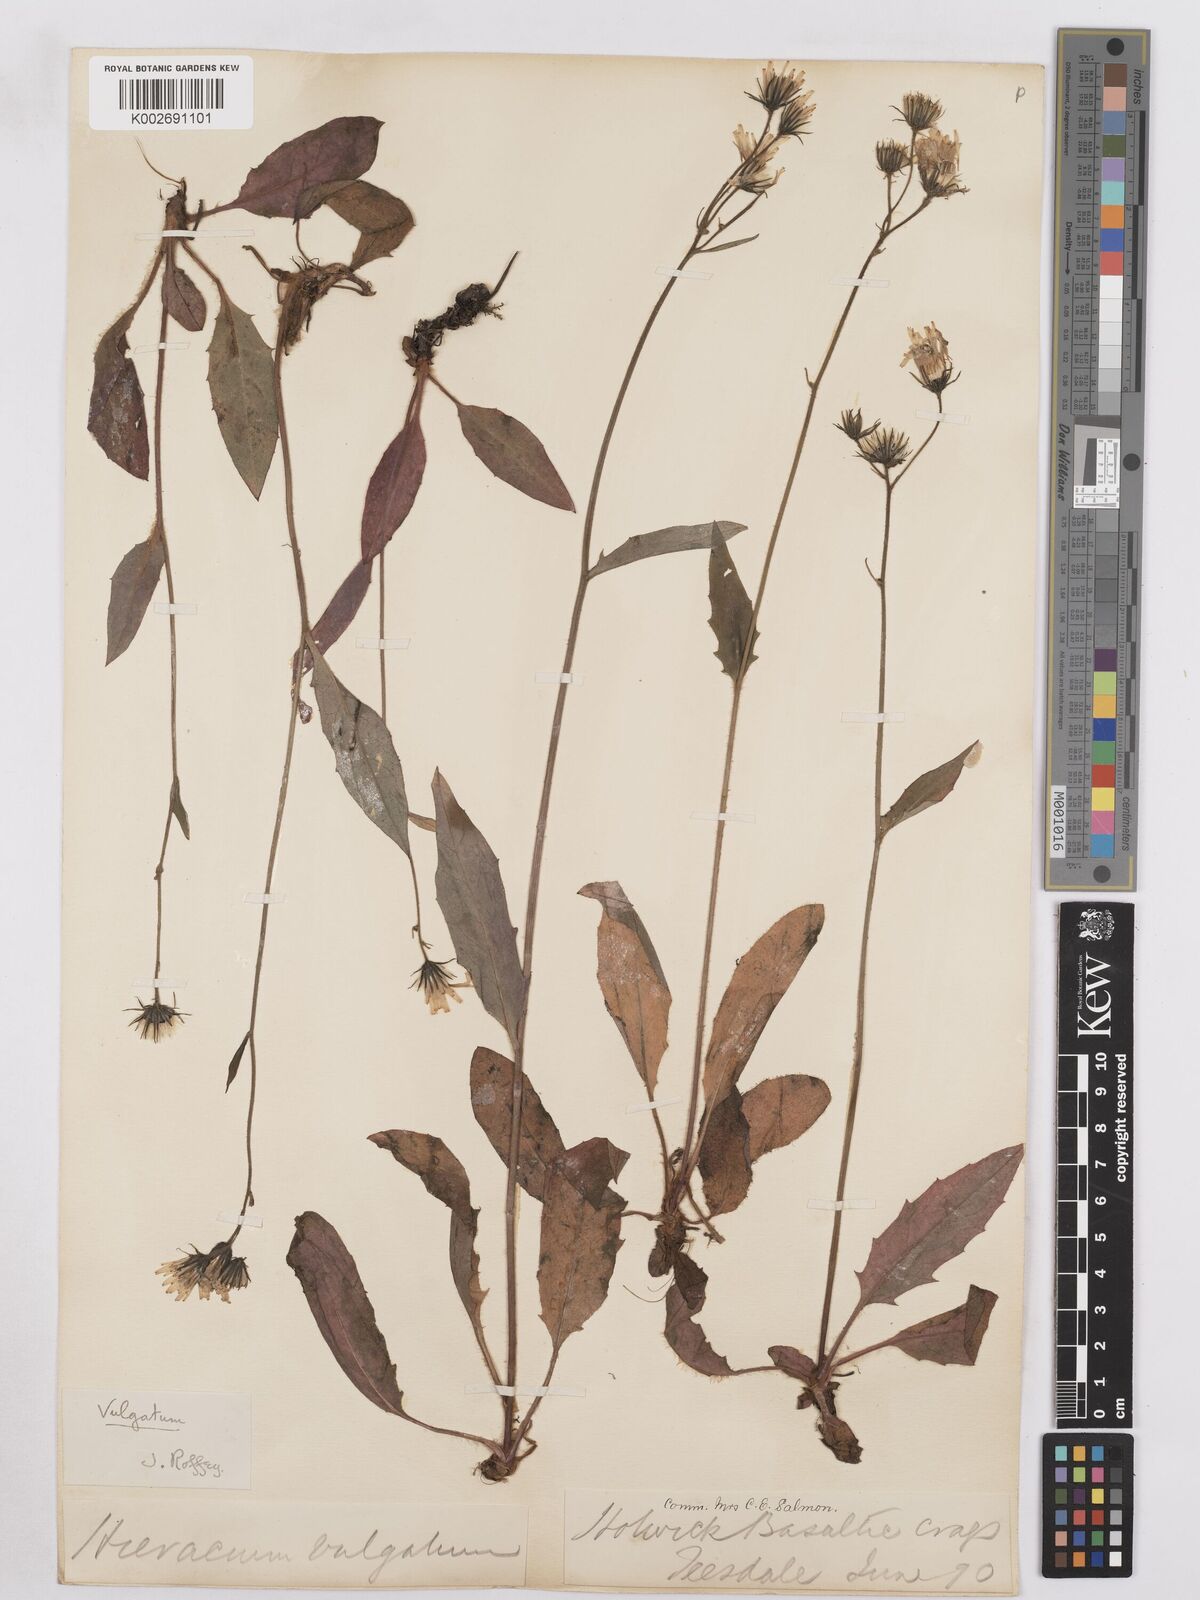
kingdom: Plantae
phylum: Tracheophyta
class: Magnoliopsida
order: Asterales
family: Asteraceae
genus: Hieracium
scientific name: Hieracium lachenalii
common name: Common hawkweed
